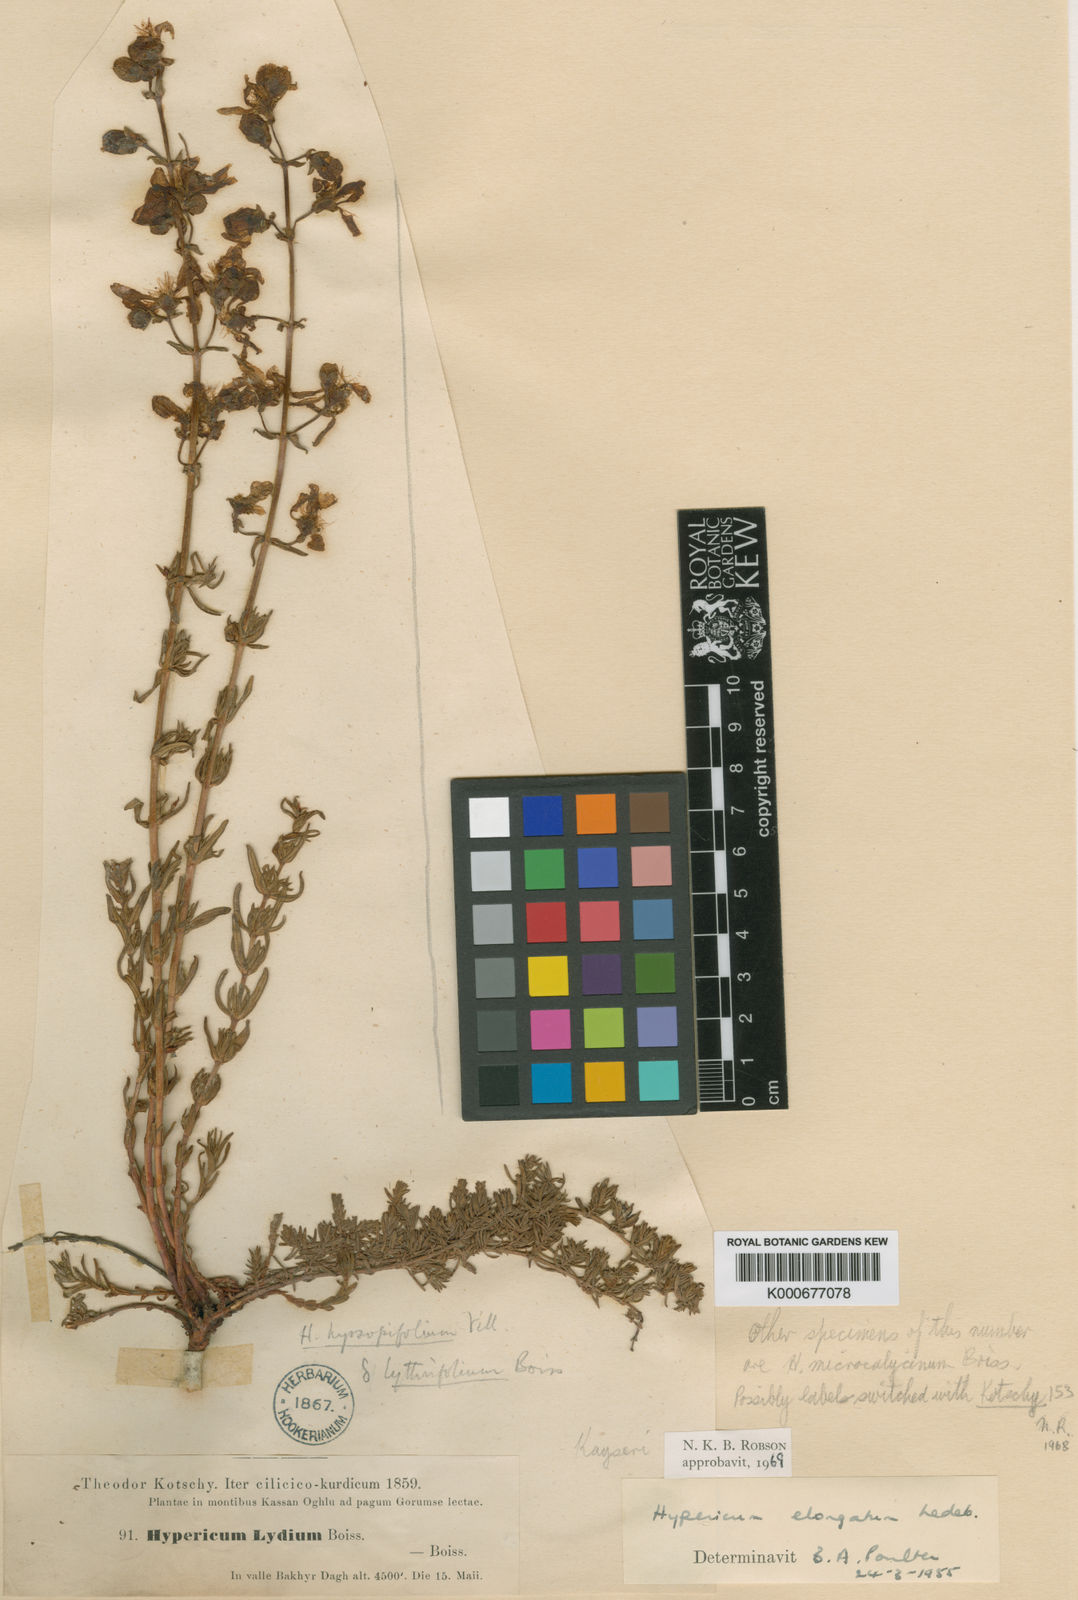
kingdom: Plantae
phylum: Tracheophyta
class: Magnoliopsida
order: Malpighiales
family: Hypericaceae
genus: Hypericum
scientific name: Hypericum elongatum
